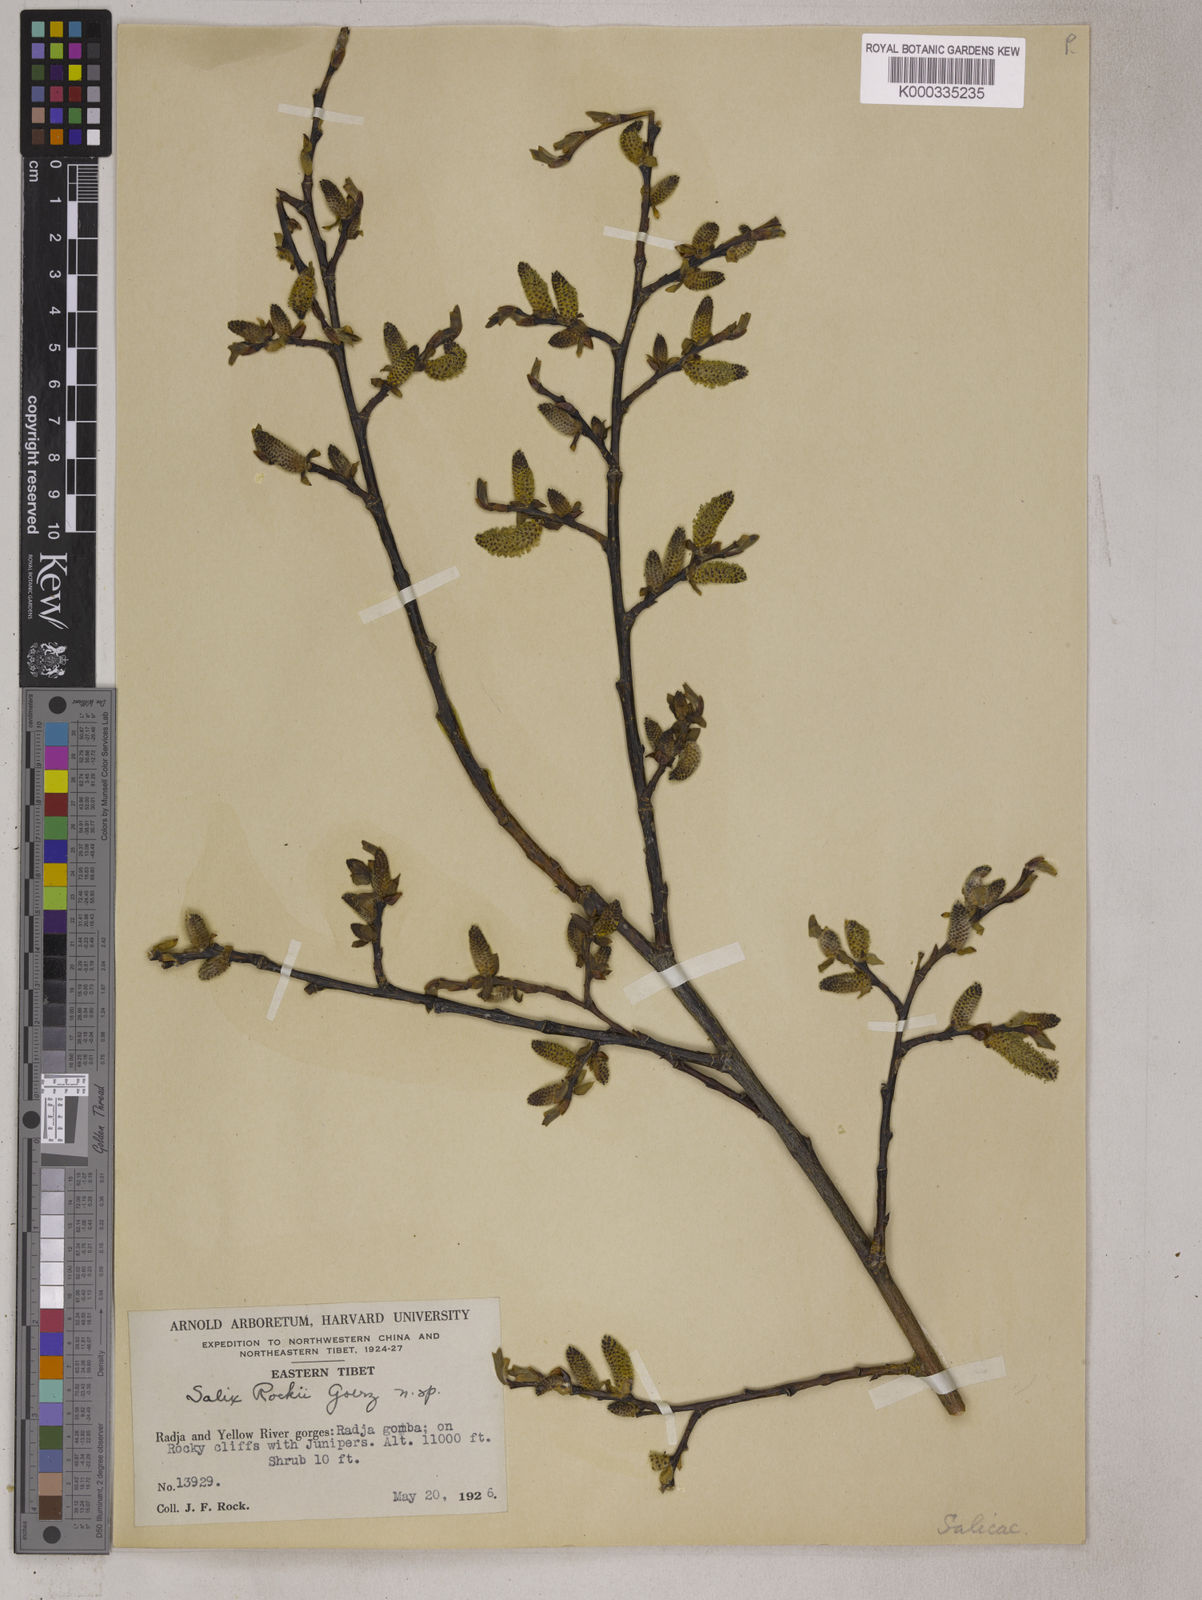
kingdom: Plantae
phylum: Tracheophyta
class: Magnoliopsida
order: Malpighiales
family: Salicaceae
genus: Salix
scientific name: Salix
